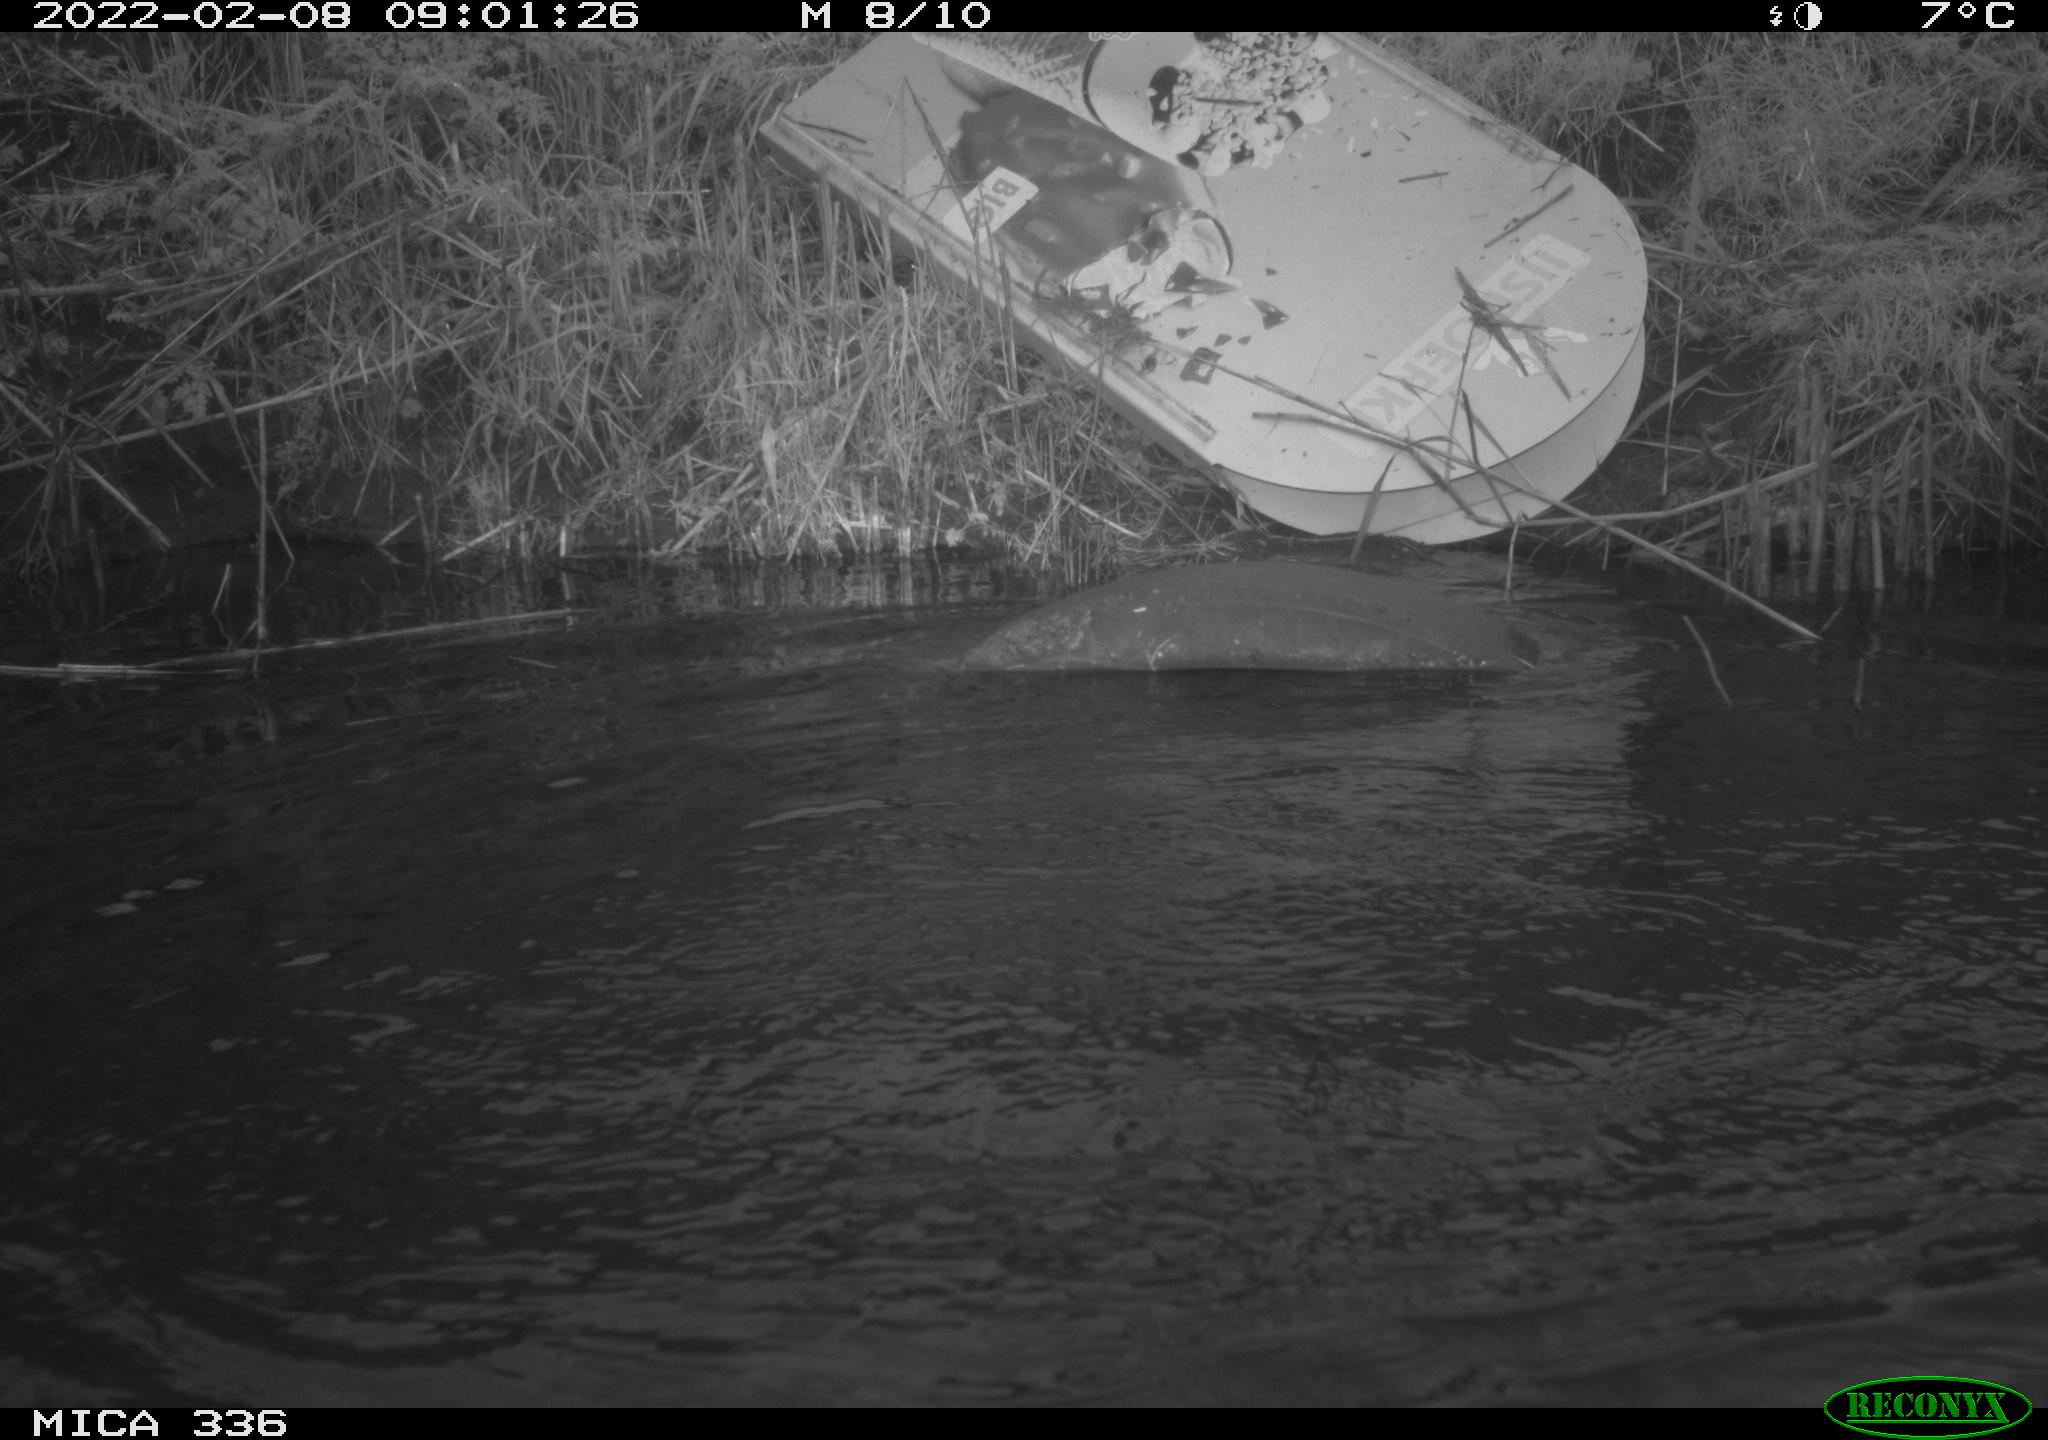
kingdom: Animalia
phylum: Chordata
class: Aves
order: Suliformes
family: Phalacrocoracidae
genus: Phalacrocorax
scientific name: Phalacrocorax carbo
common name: Great cormorant
